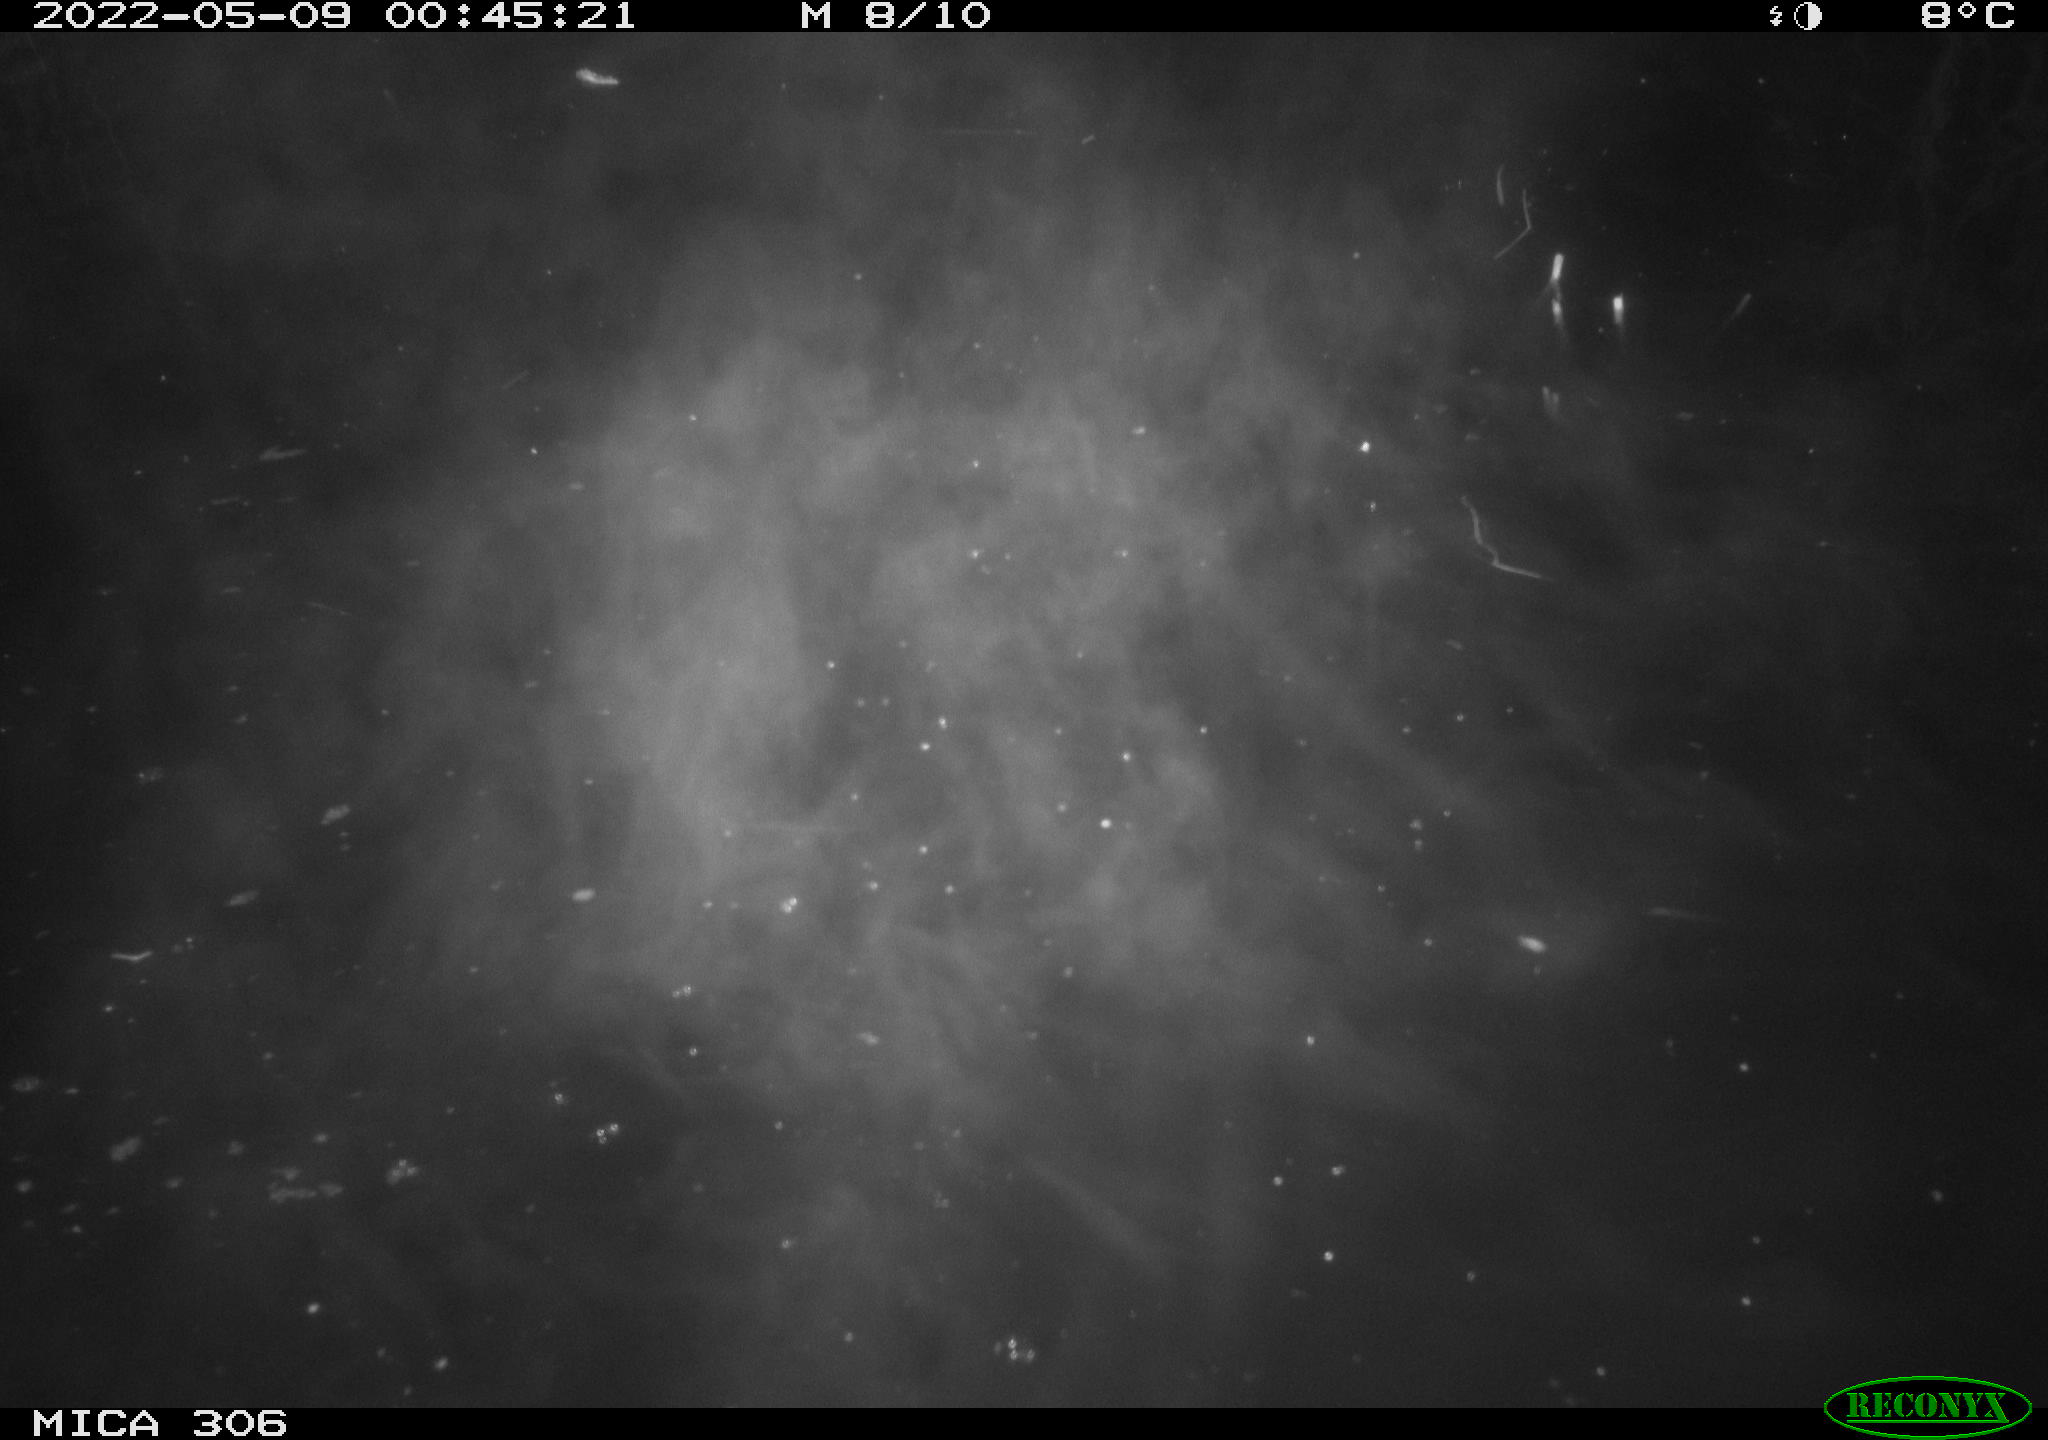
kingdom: Animalia
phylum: Chordata
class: Mammalia
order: Rodentia
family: Cricetidae
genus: Ondatra
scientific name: Ondatra zibethicus
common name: Muskrat
